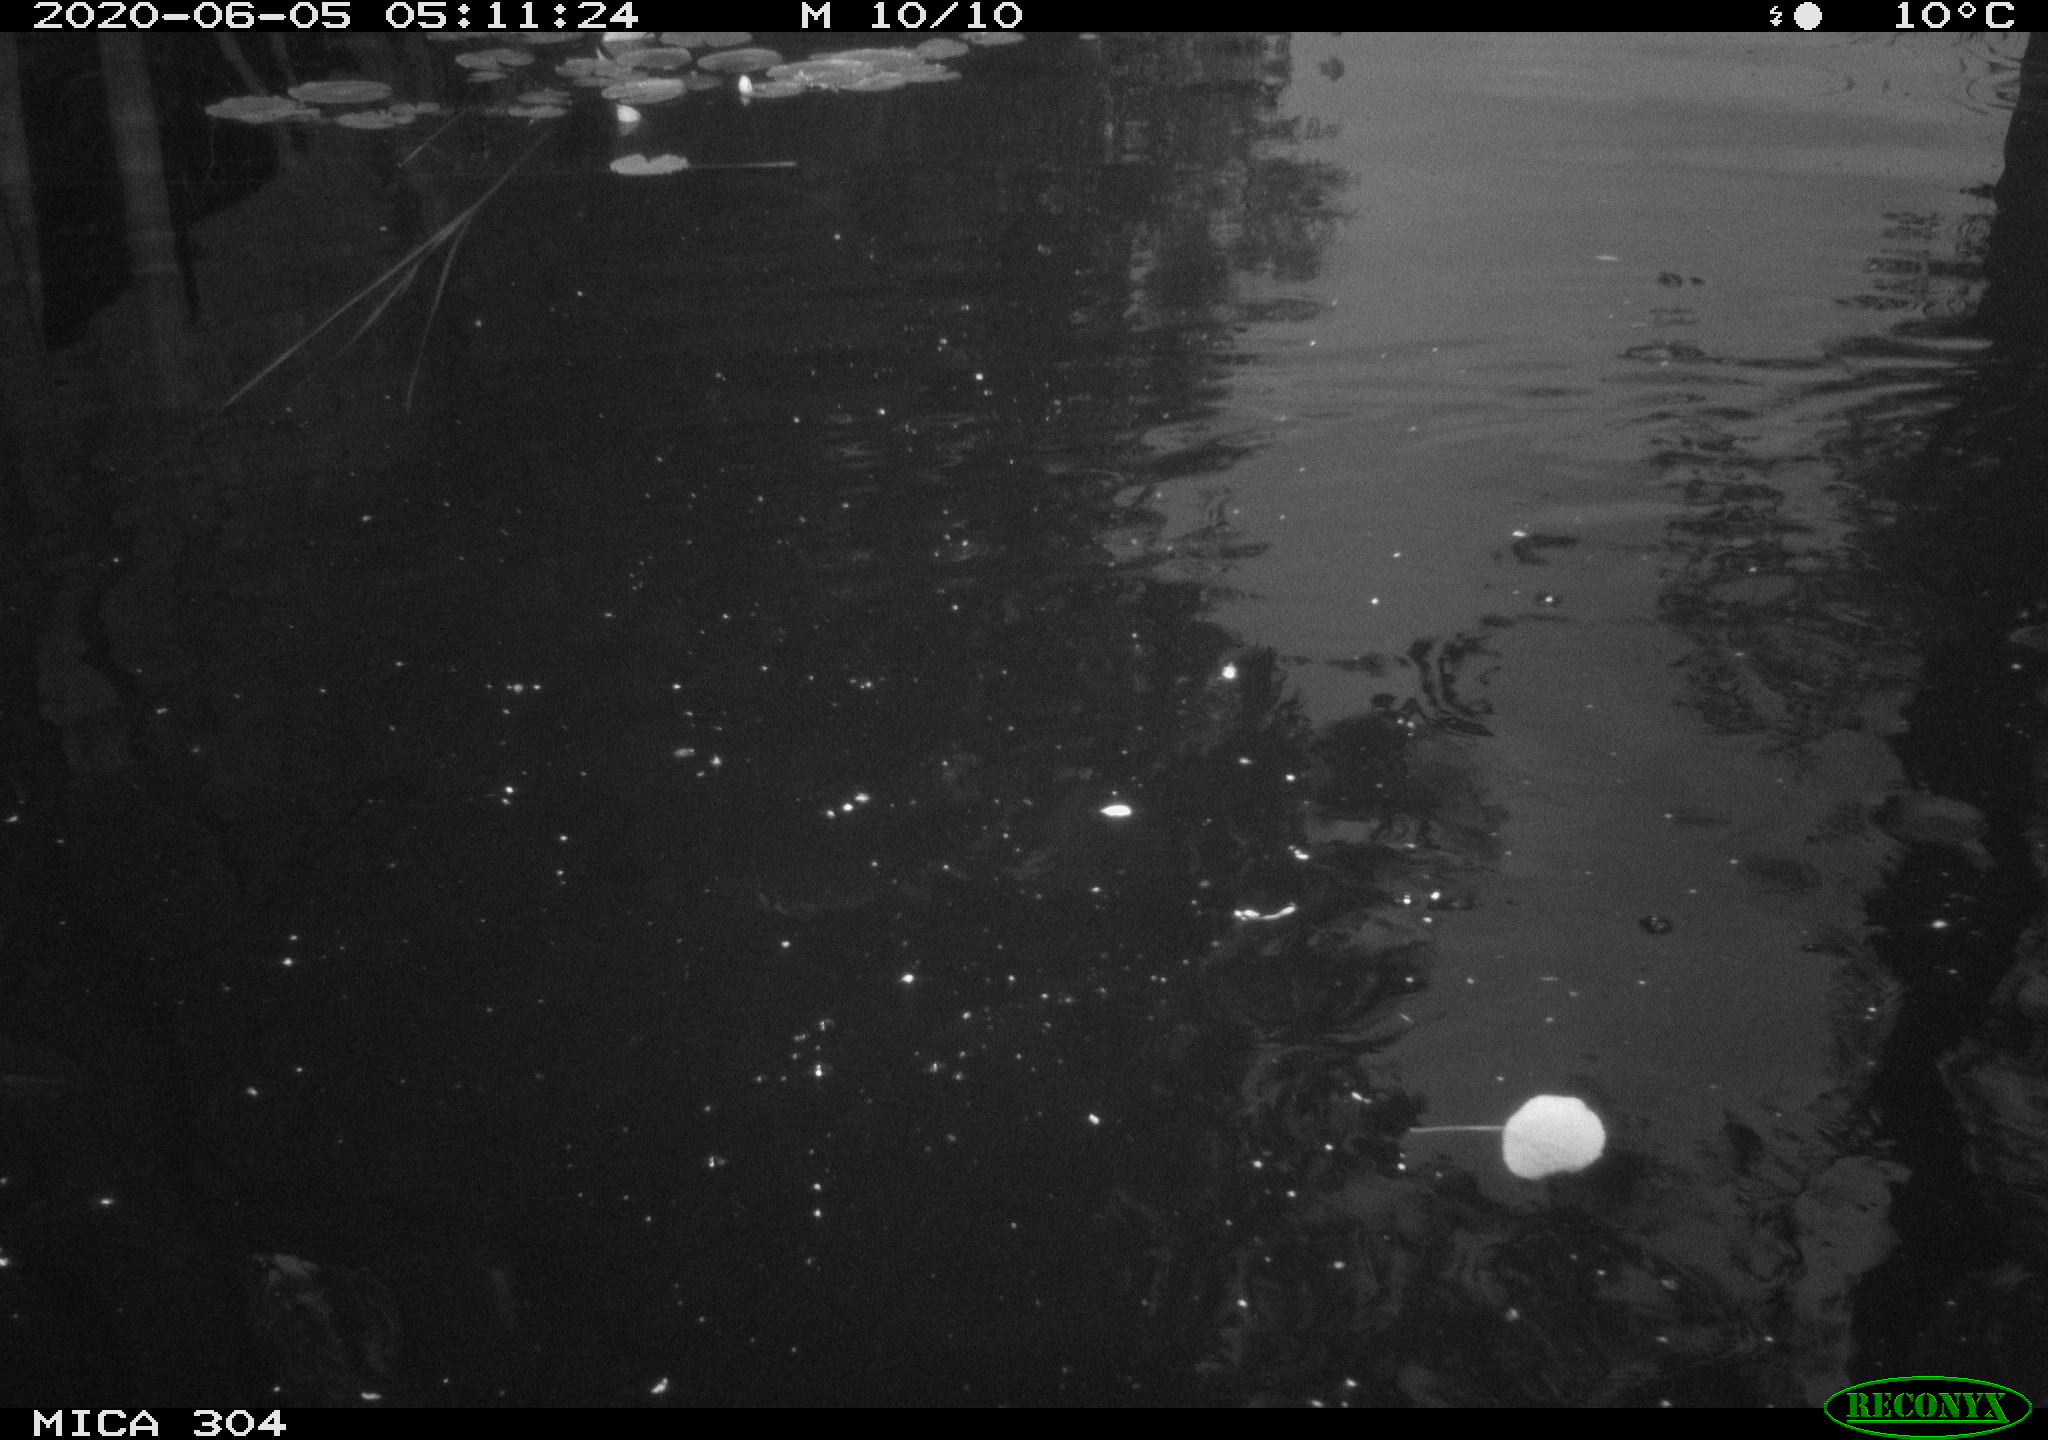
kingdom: Animalia
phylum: Chordata
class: Aves
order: Anseriformes
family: Anatidae
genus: Anas
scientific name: Anas platyrhynchos
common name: Mallard
